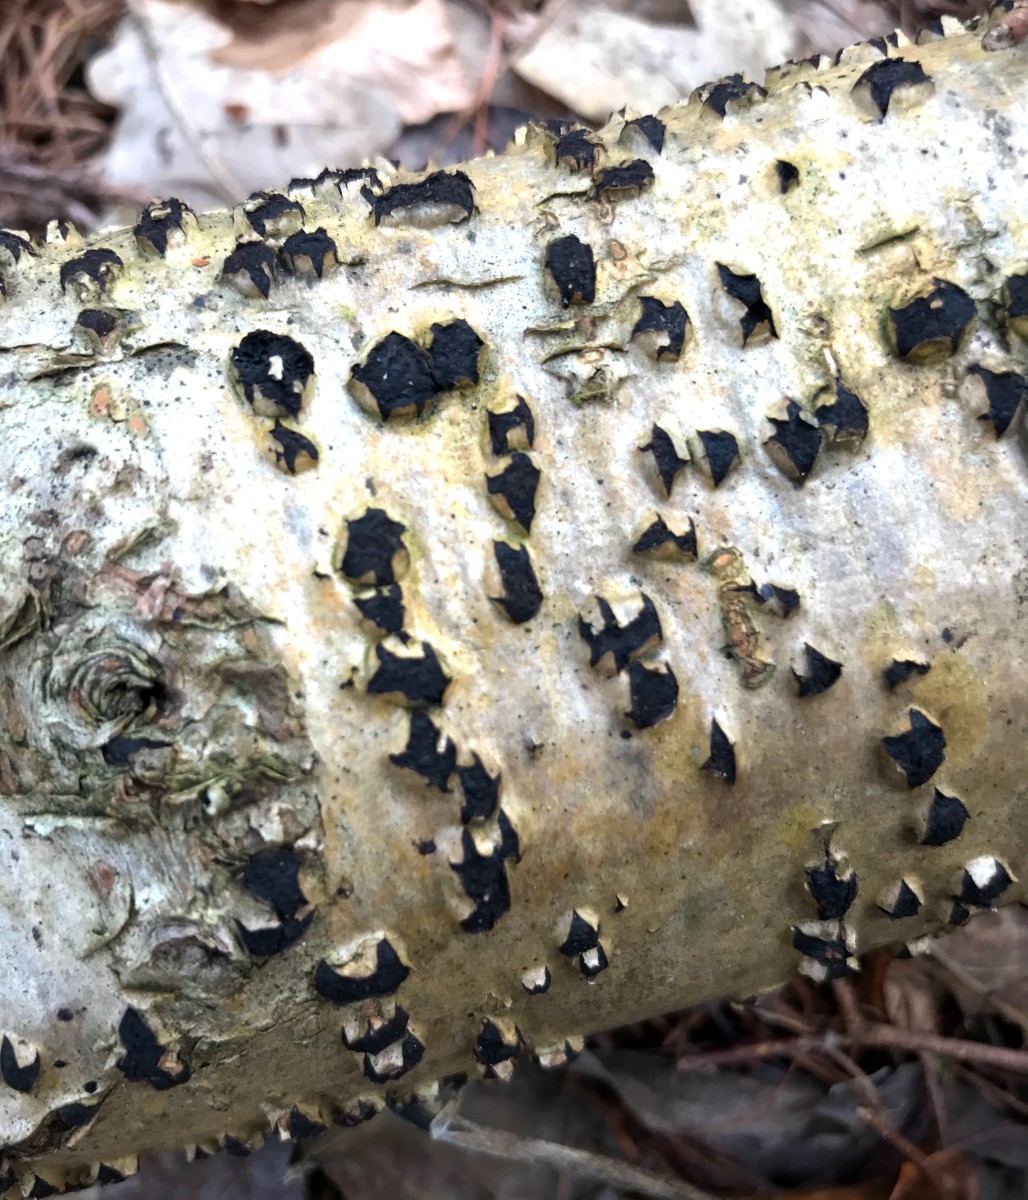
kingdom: Fungi
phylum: Ascomycota
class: Sordariomycetes
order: Xylariales
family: Diatrypaceae
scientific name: Diatrypaceae
